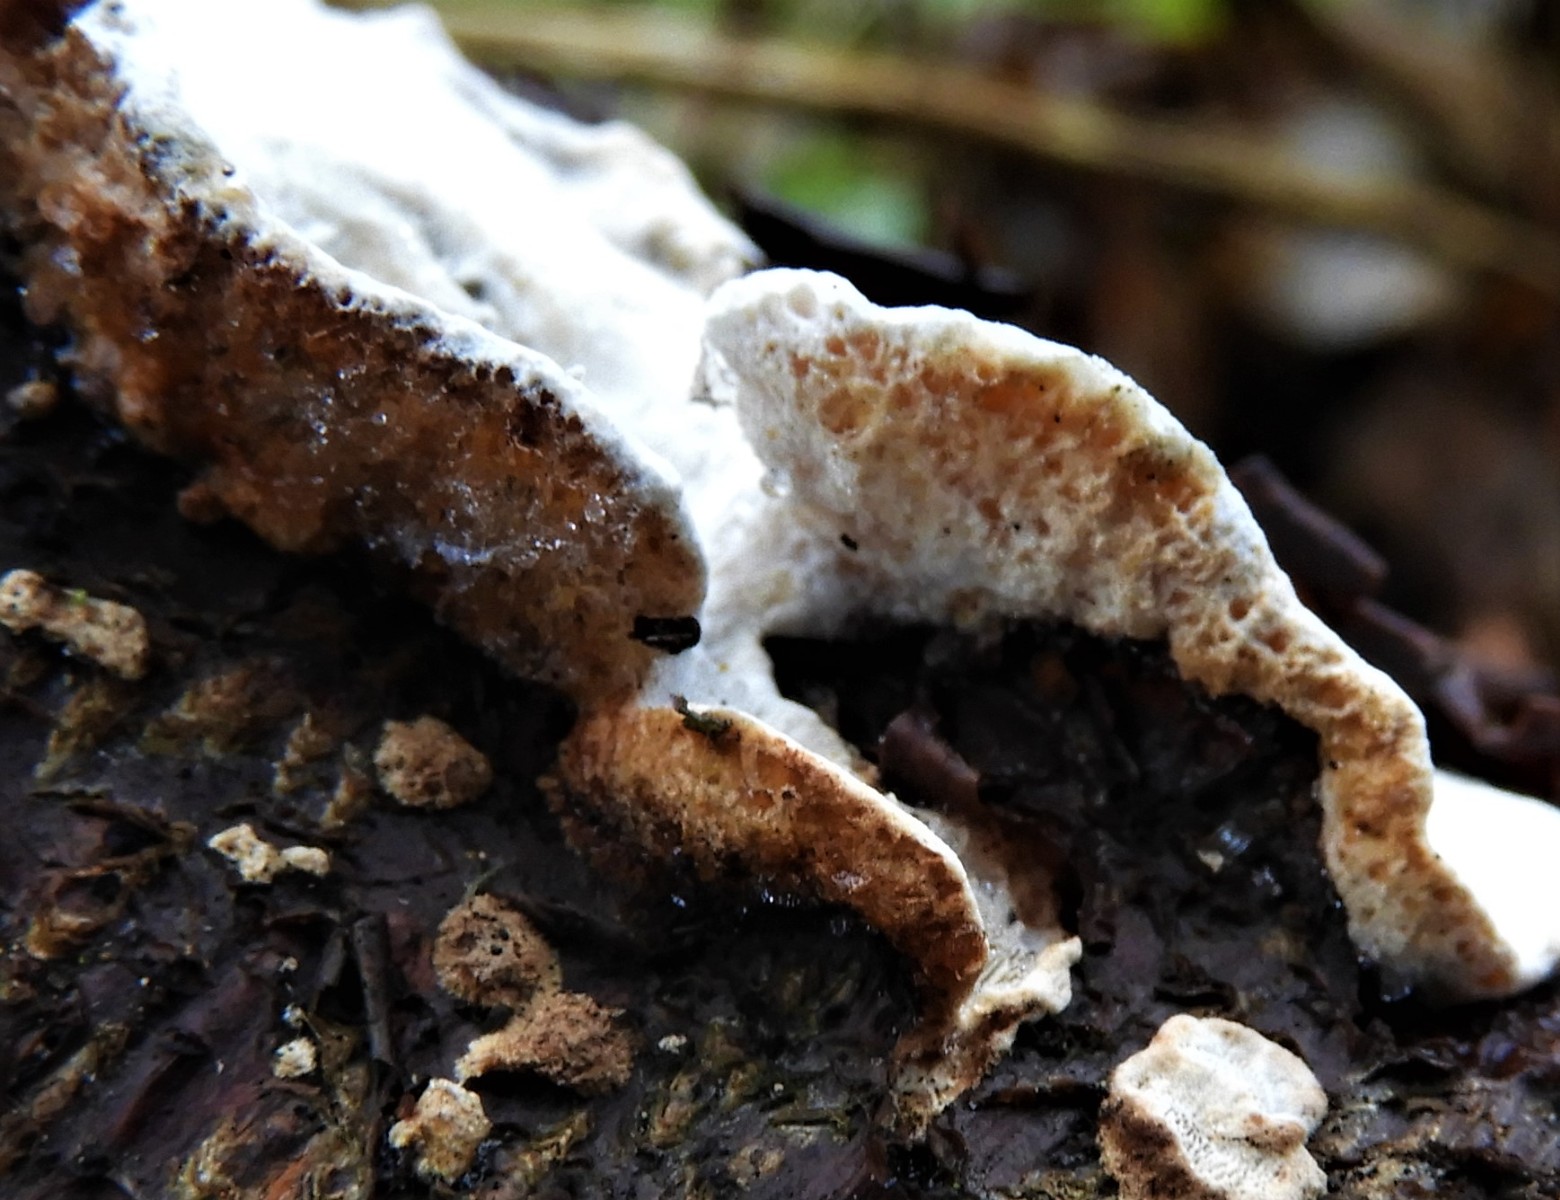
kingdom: Fungi
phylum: Basidiomycota
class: Agaricomycetes
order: Polyporales
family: Incrustoporiaceae
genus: Skeletocutis
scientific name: Skeletocutis nemoralis
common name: stor krystalporesvamp
